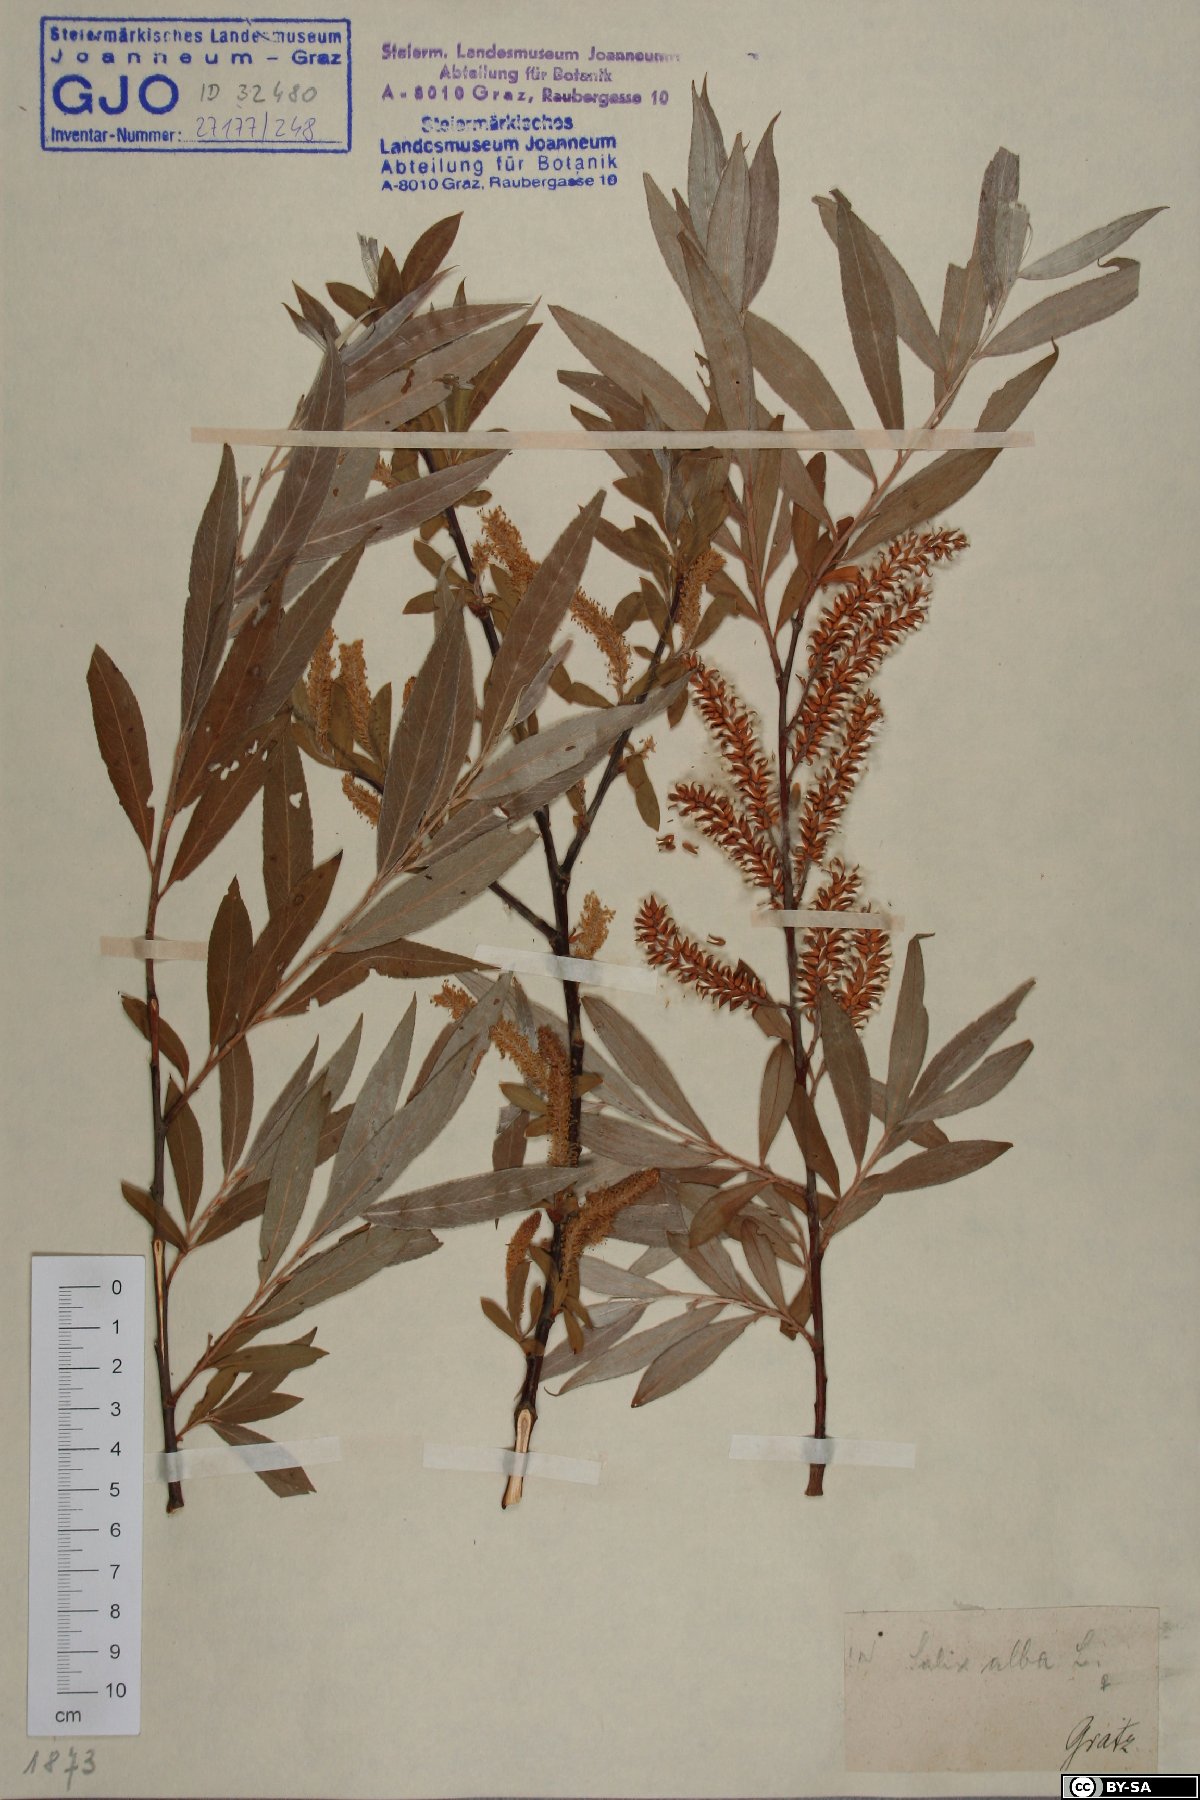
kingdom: Plantae
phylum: Tracheophyta
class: Magnoliopsida
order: Malpighiales
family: Salicaceae
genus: Salix
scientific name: Salix alba
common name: White willow
